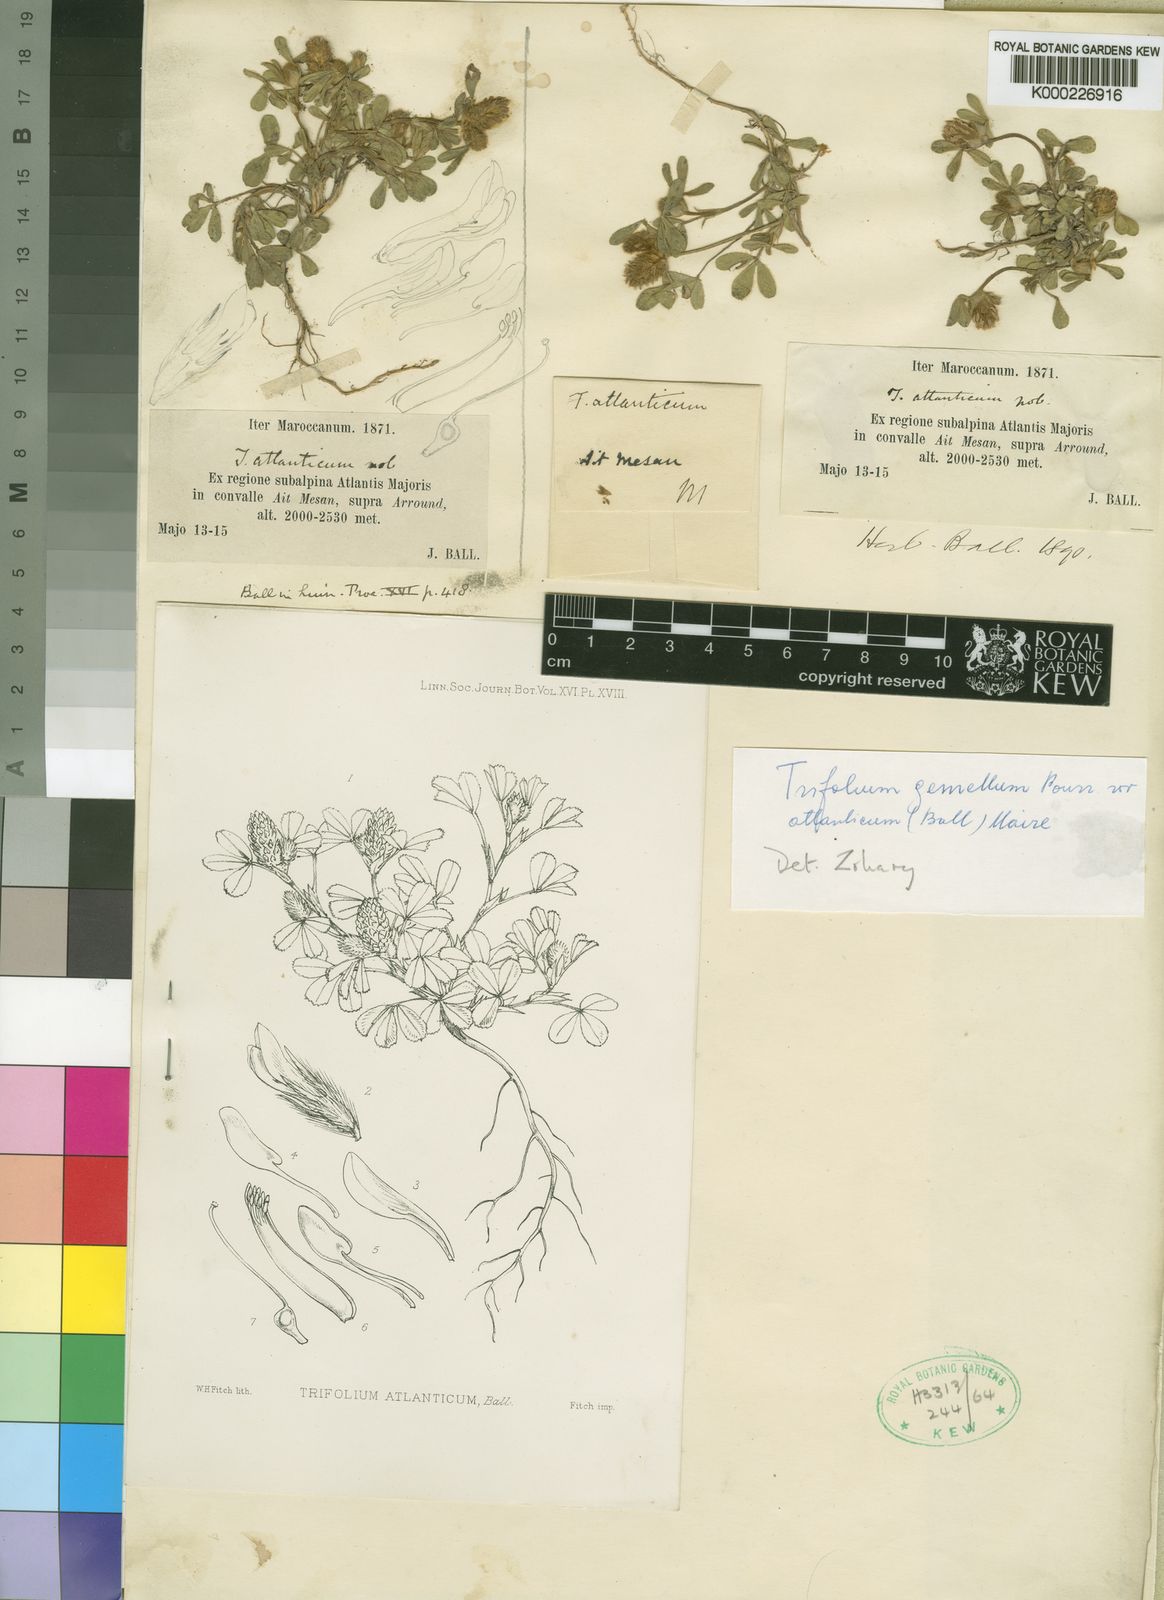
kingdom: Plantae
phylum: Tracheophyta
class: Magnoliopsida
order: Fabales
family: Fabaceae
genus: Trifolium
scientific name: Trifolium gemellum
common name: Spanish clover
